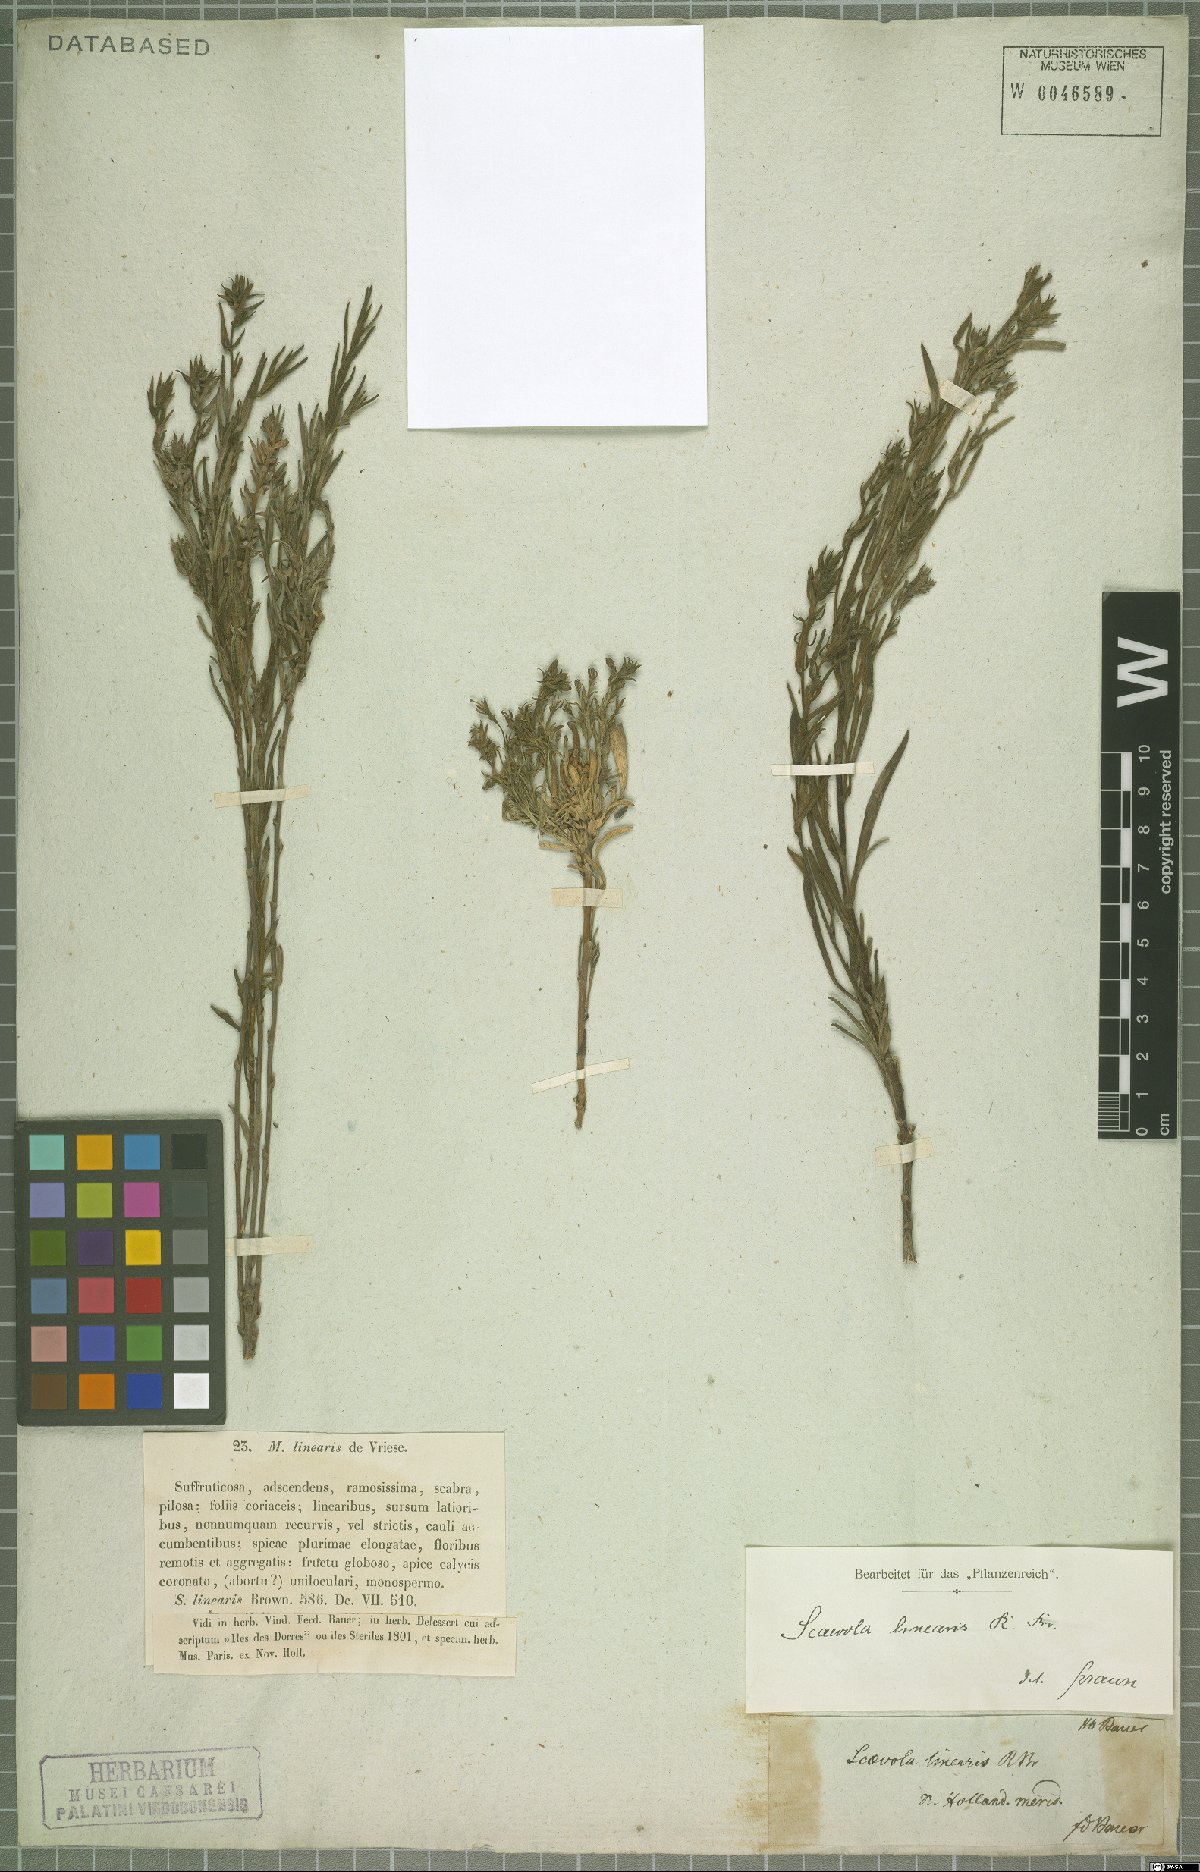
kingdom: Plantae
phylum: Tracheophyta
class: Magnoliopsida
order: Asterales
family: Goodeniaceae
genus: Scaevola
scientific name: Scaevola linearis
